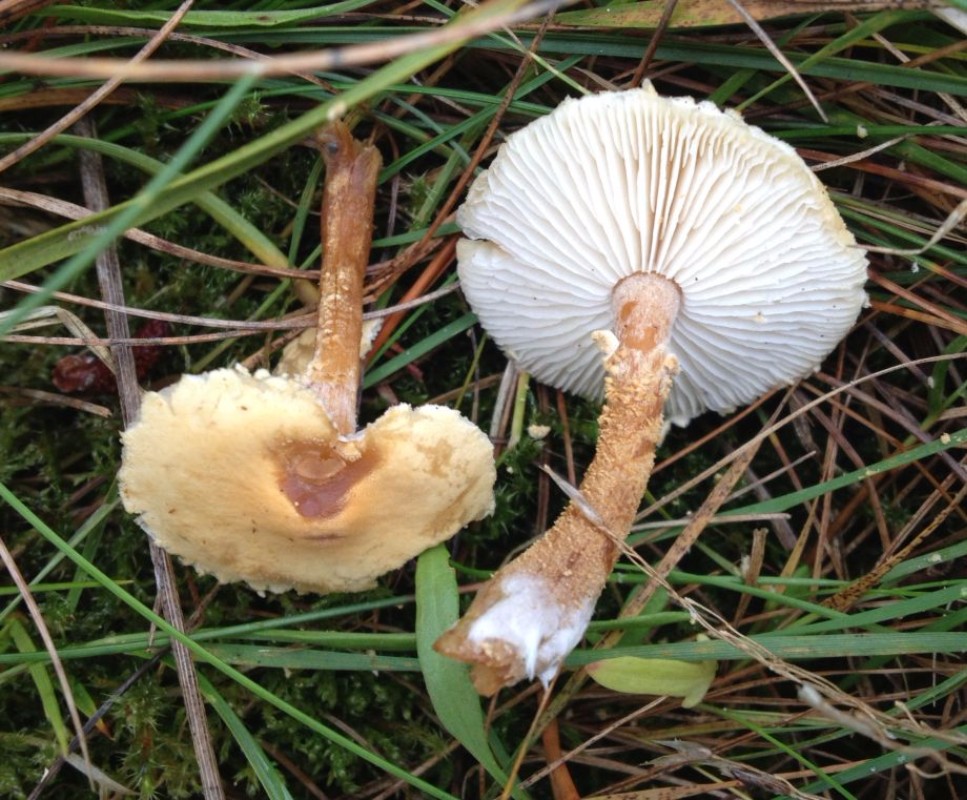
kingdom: Fungi
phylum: Basidiomycota
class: Agaricomycetes
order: Agaricales
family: Tricholomataceae
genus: Cystoderma
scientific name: Cystoderma amianthinum
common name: okkergul grynhat
